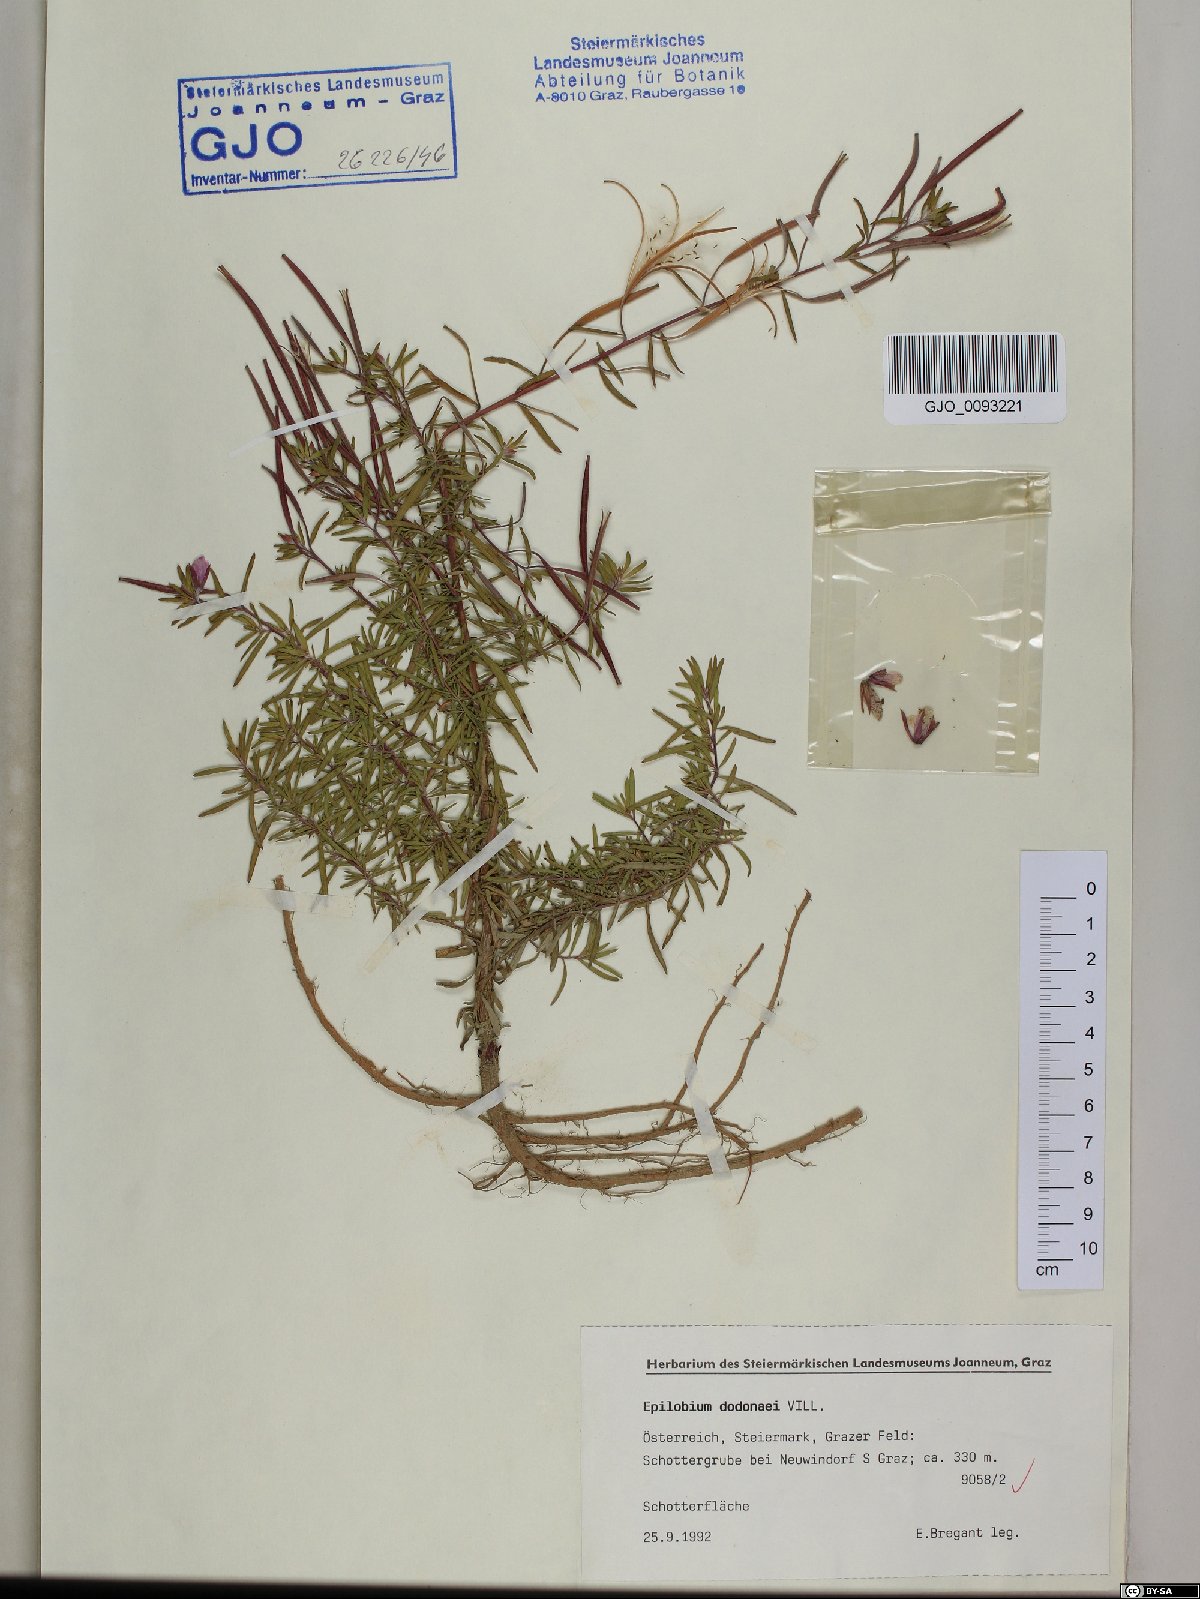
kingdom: Plantae
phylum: Tracheophyta
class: Magnoliopsida
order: Myrtales
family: Onagraceae
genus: Chamaenerion
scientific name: Chamaenerion dodonaei
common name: Rosemary-leaved willowherb
